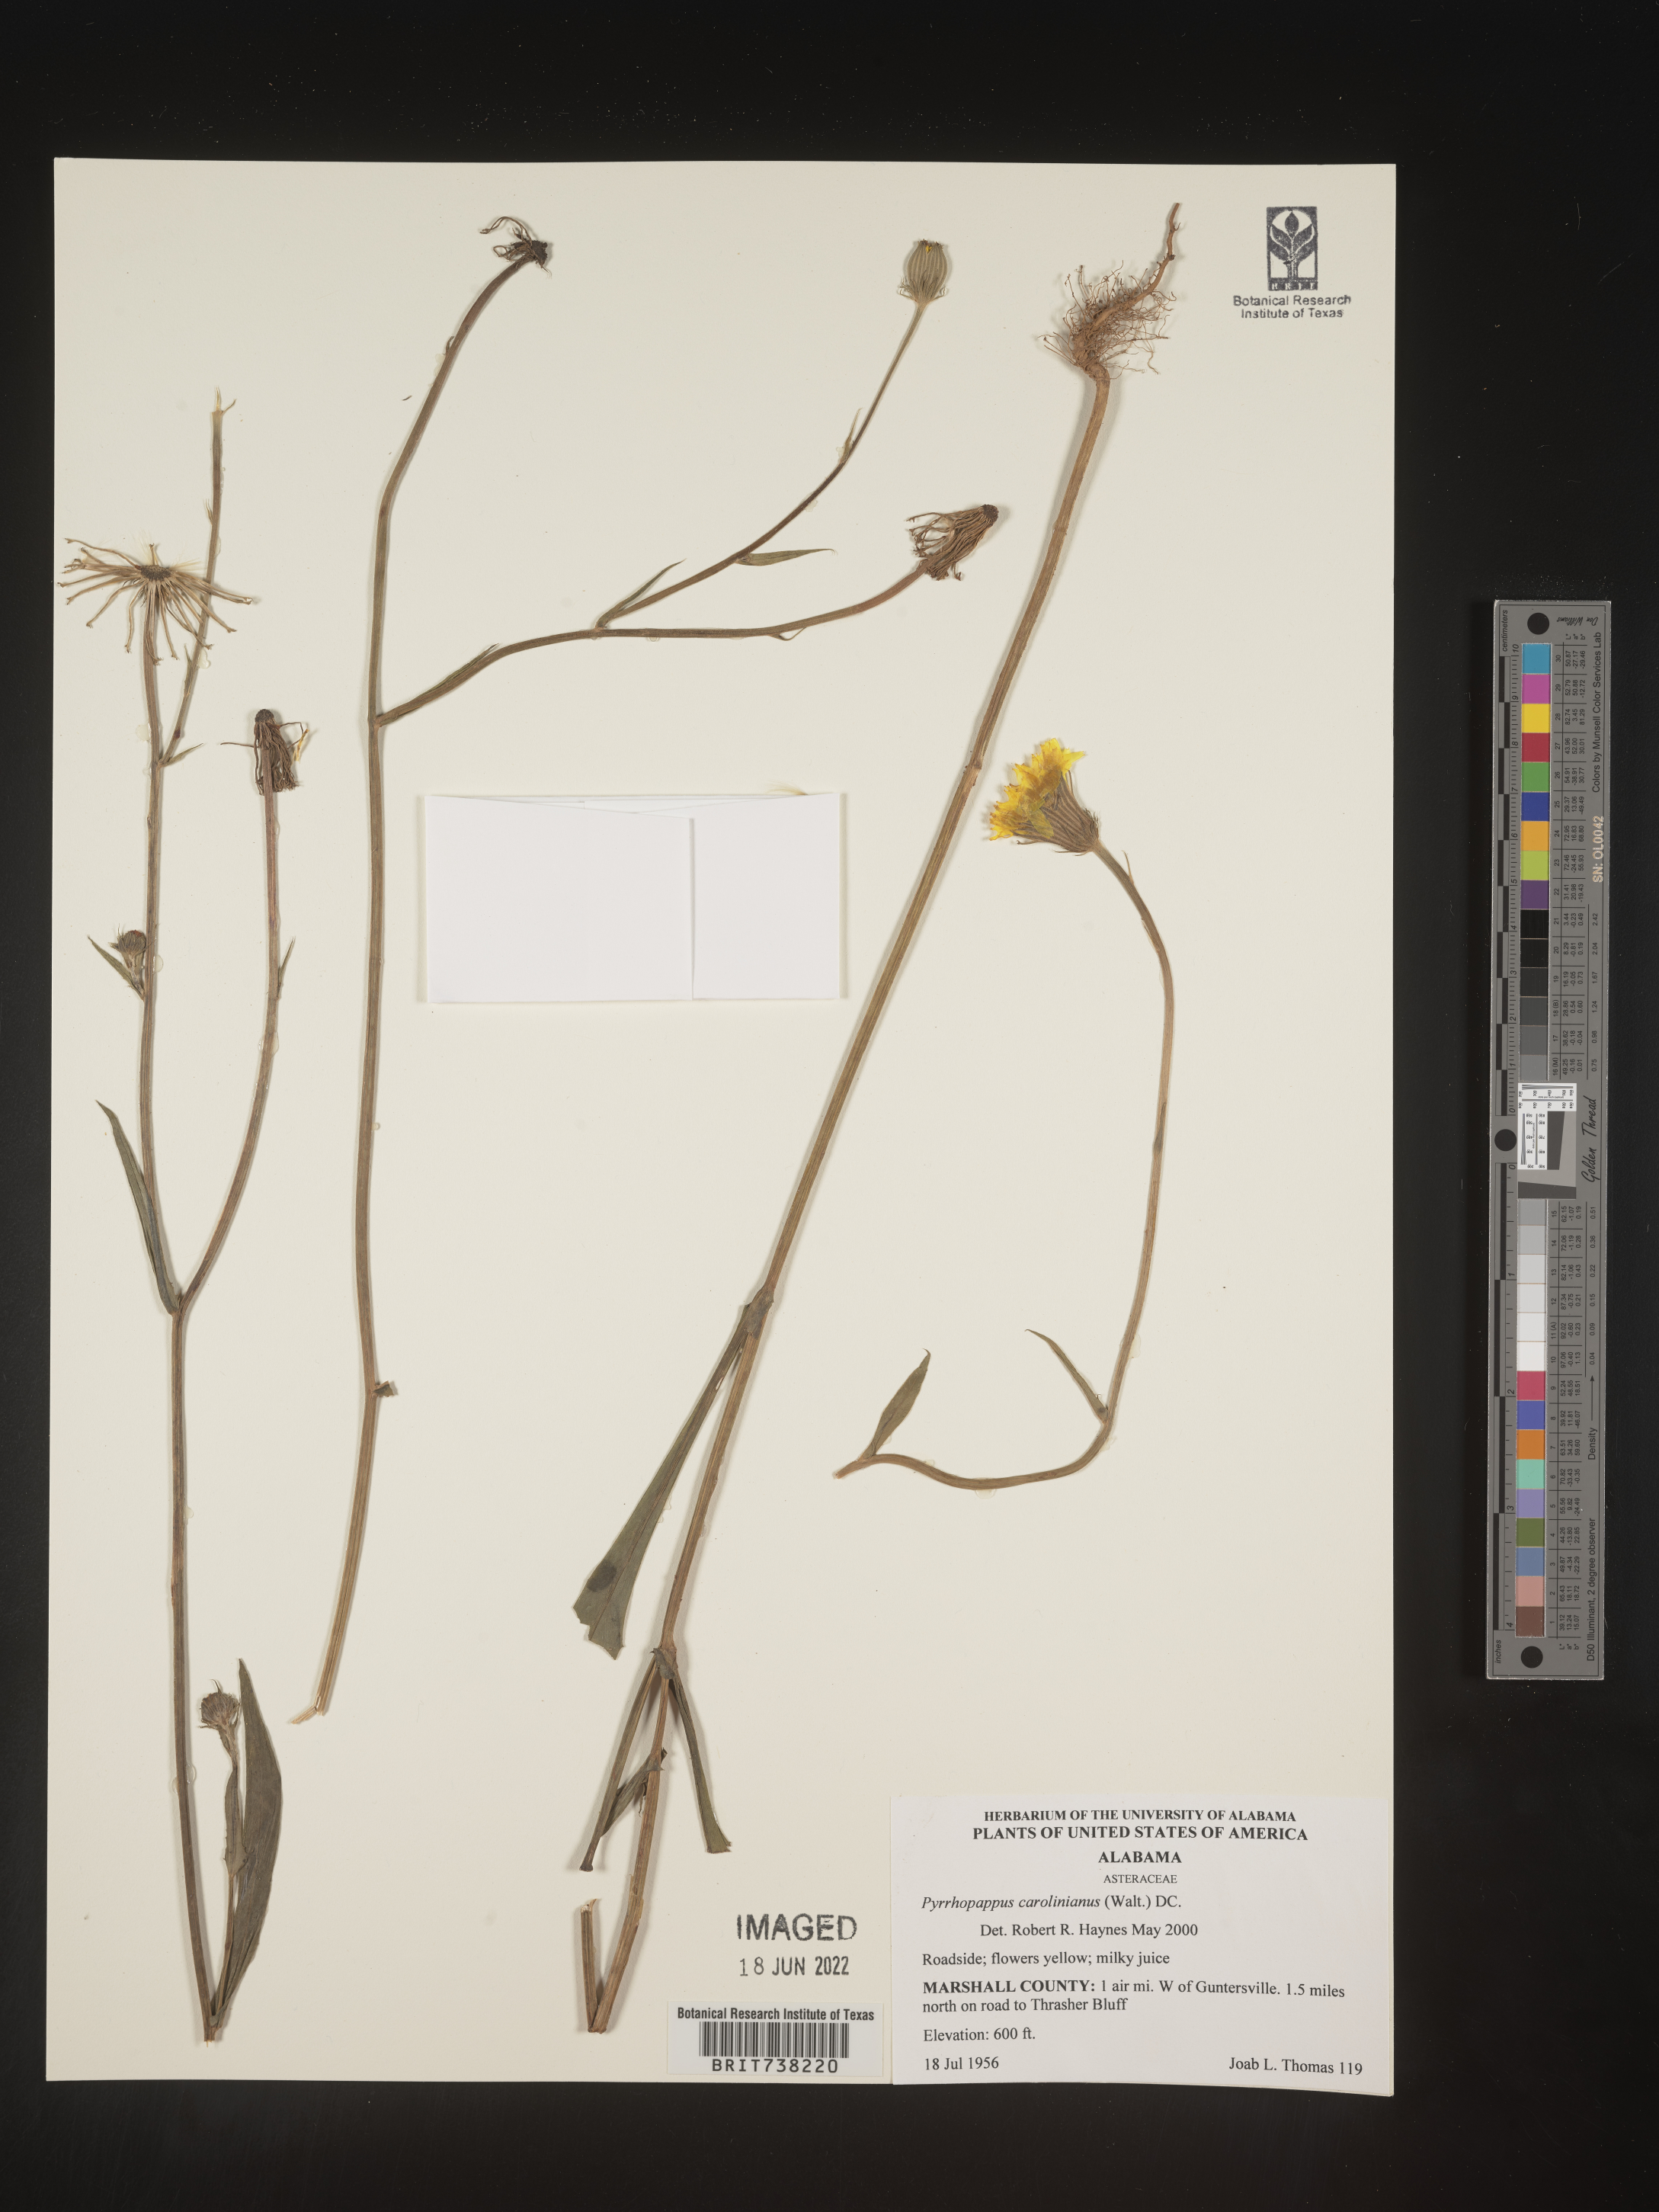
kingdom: Plantae
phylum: Tracheophyta
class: Magnoliopsida
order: Asterales
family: Asteraceae
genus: Pyrrhopappus
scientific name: Pyrrhopappus carolinianus
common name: Carolina desert-chicory
